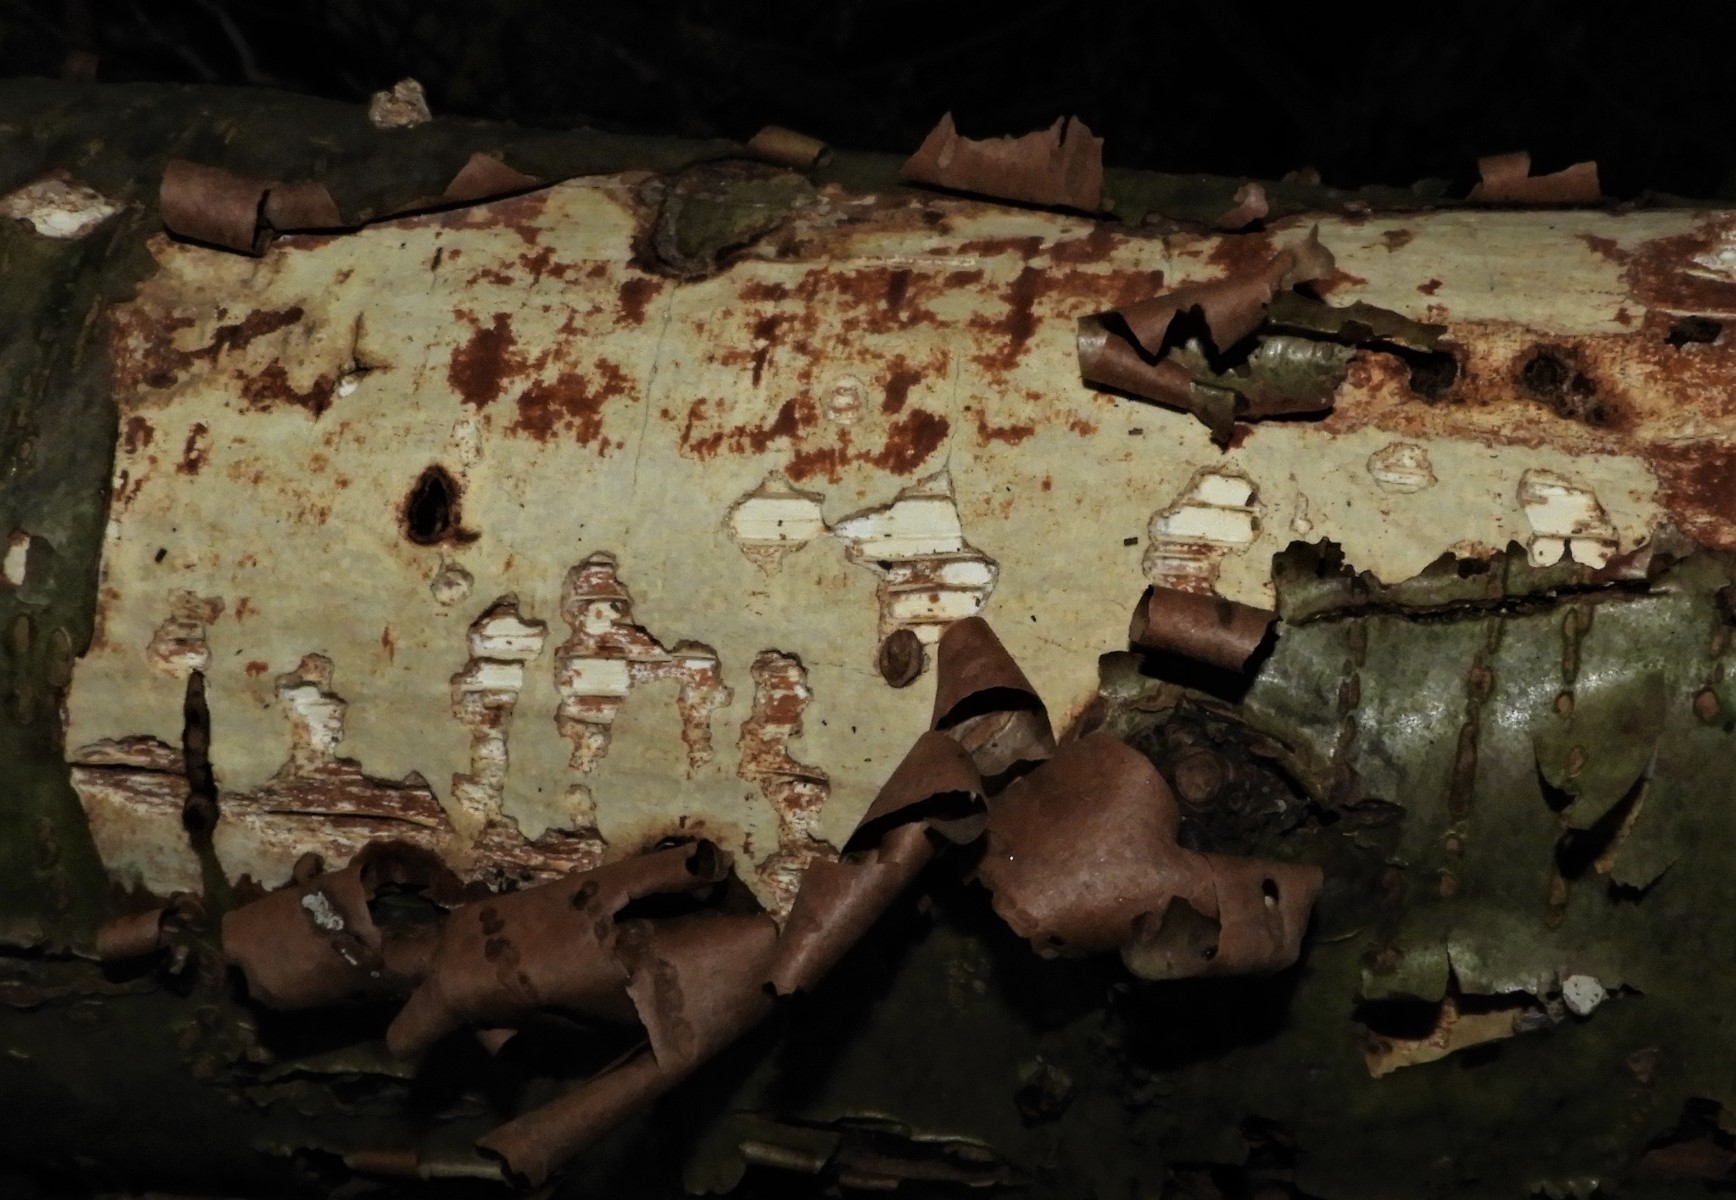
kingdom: Fungi
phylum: Basidiomycota
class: Agaricomycetes
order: Corticiales
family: Vuilleminiaceae
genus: Vuilleminia
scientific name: Vuilleminia coryli
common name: hassel-barksprænger
